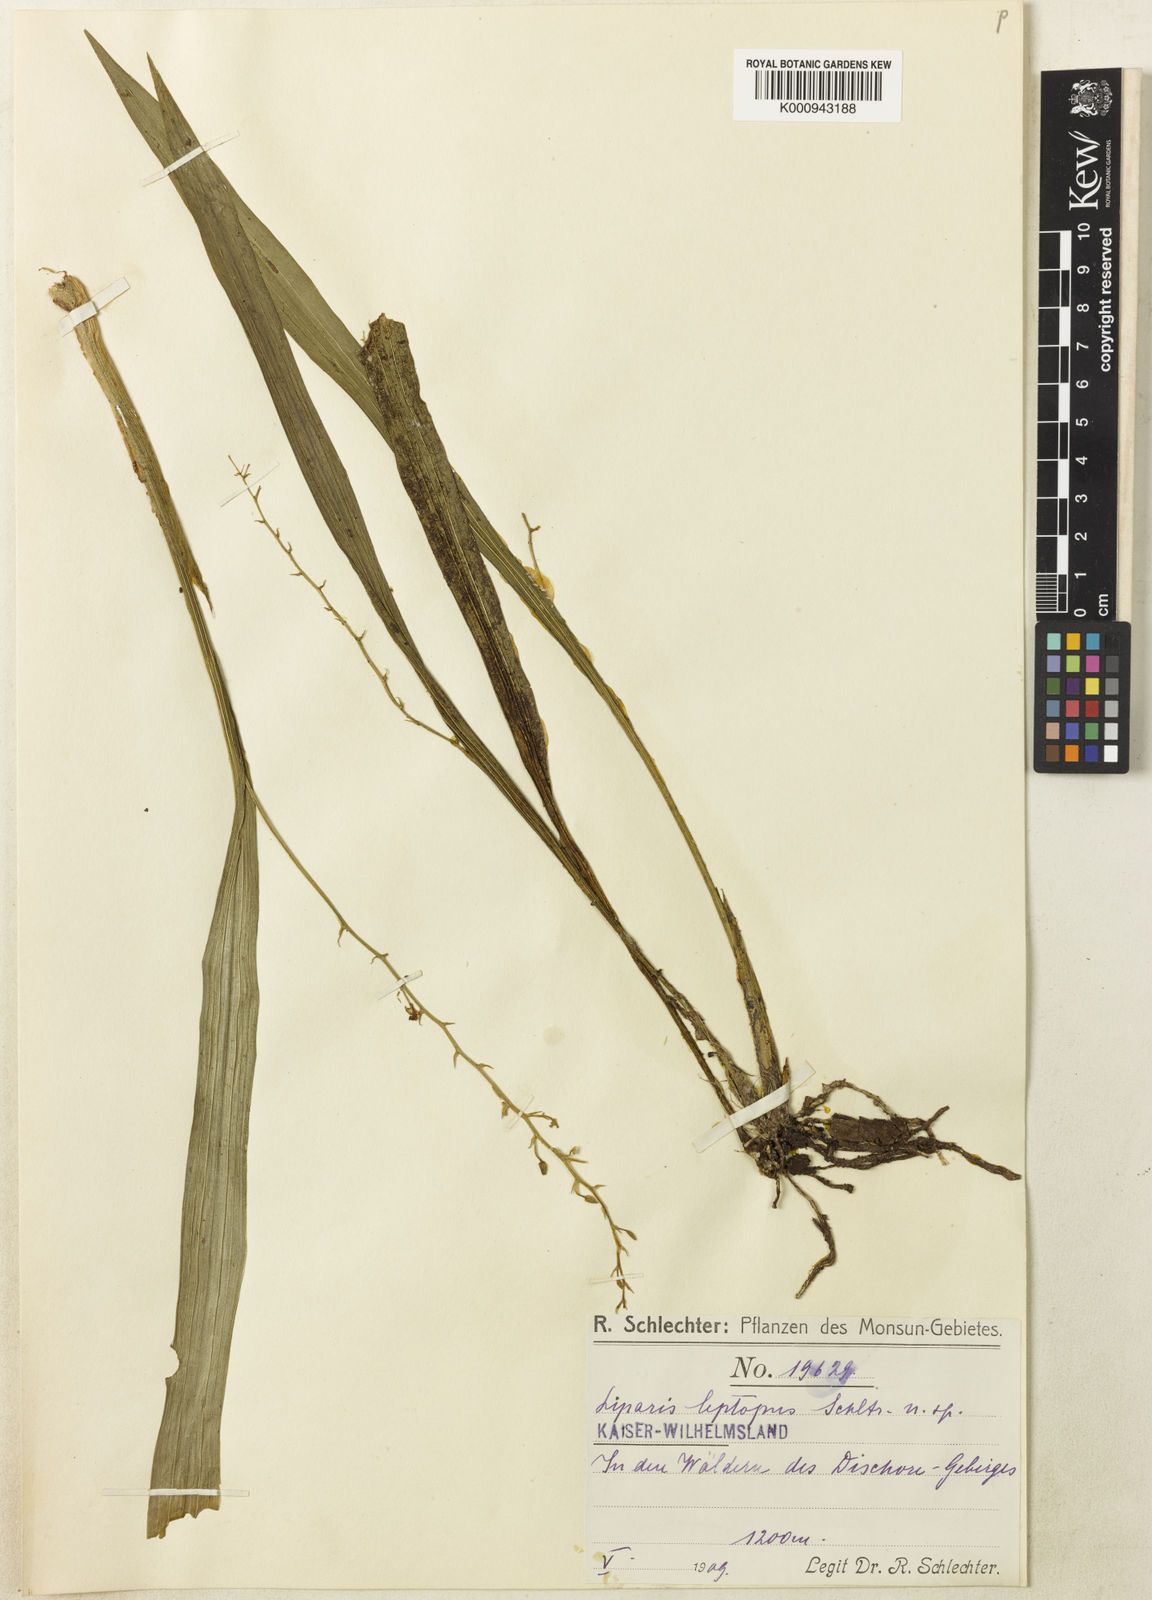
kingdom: Plantae
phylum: Tracheophyta
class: Liliopsida
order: Asparagales
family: Orchidaceae
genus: Liparis
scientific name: Liparis leptopus
